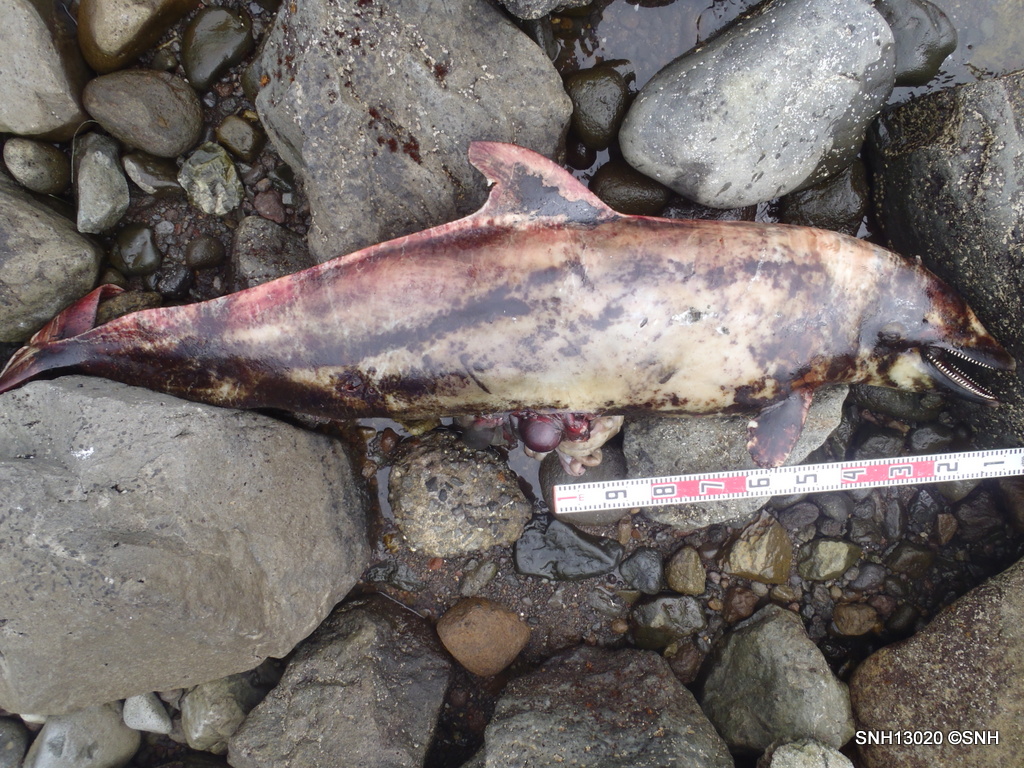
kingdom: Animalia
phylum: Chordata
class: Mammalia
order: Cetacea
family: Delphinidae
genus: Lagenorhynchus
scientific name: Lagenorhynchus obliquidens
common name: Pacific white-sided dolphin
